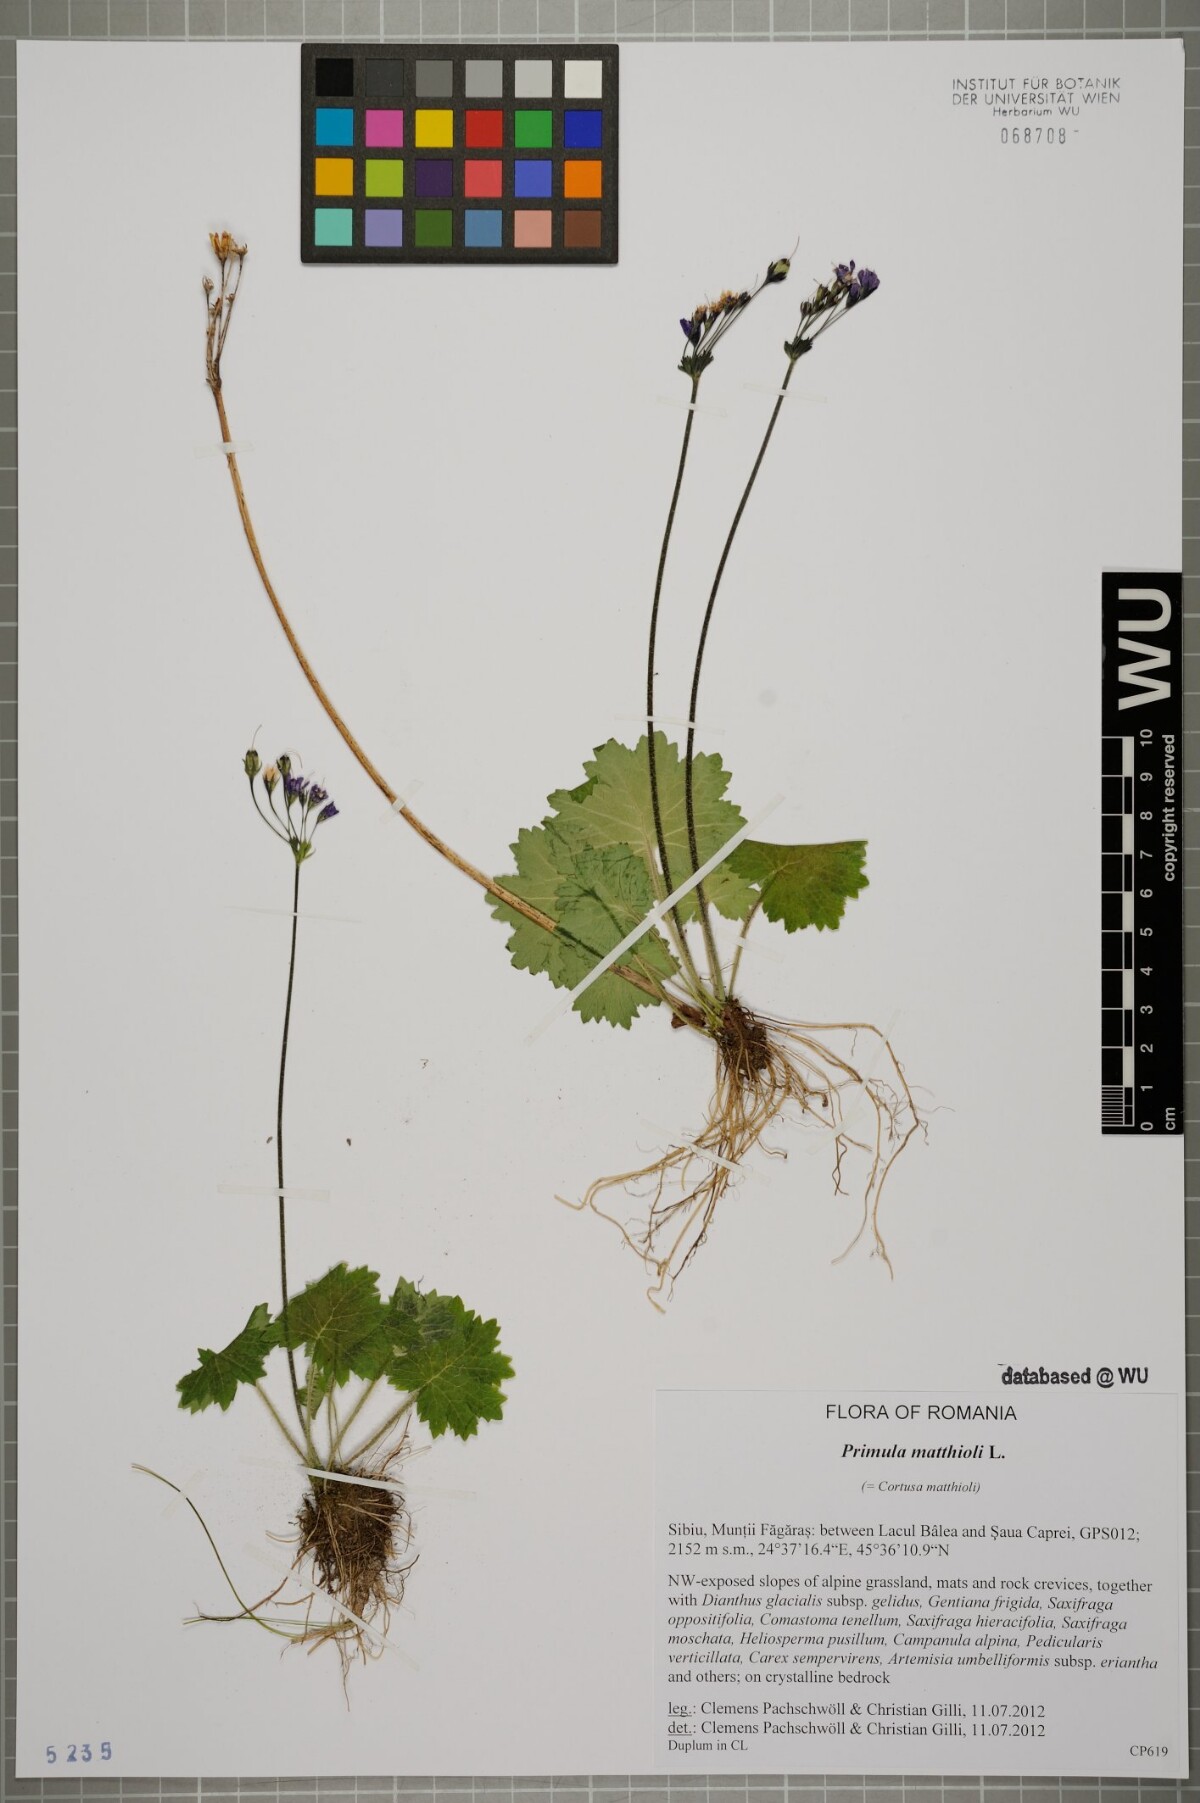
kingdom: Plantae
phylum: Tracheophyta
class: Magnoliopsida
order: Ericales
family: Primulaceae
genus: Primula
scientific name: Primula matthioli
